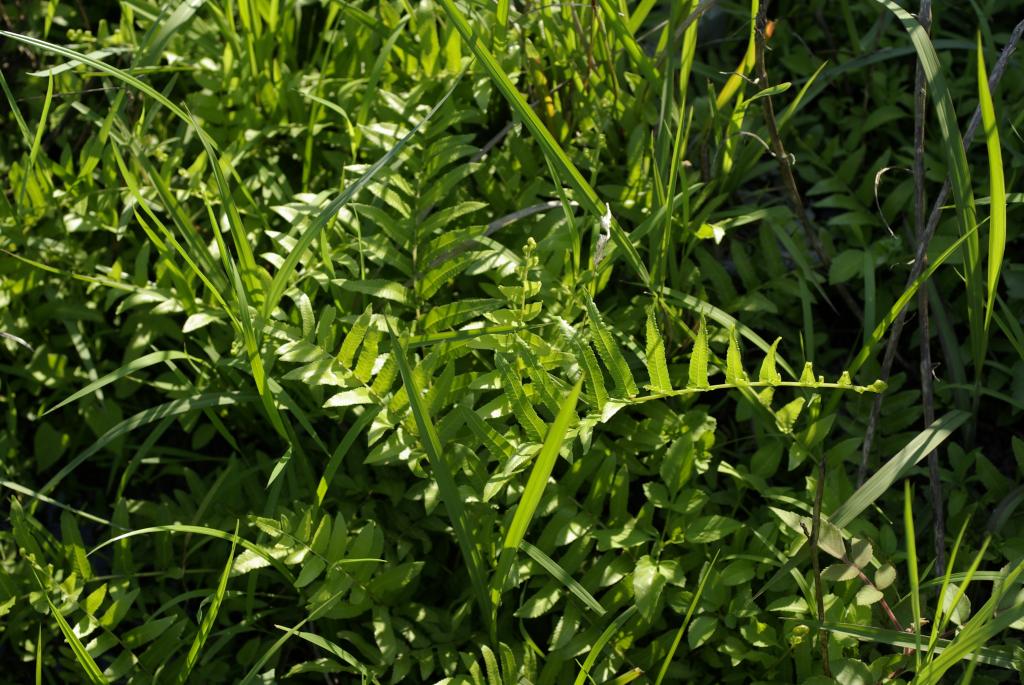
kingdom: Plantae
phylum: Tracheophyta
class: Polypodiopsida
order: Polypodiales
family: Thelypteridaceae
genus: Ampelopteris
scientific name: Ampelopteris prolifera
